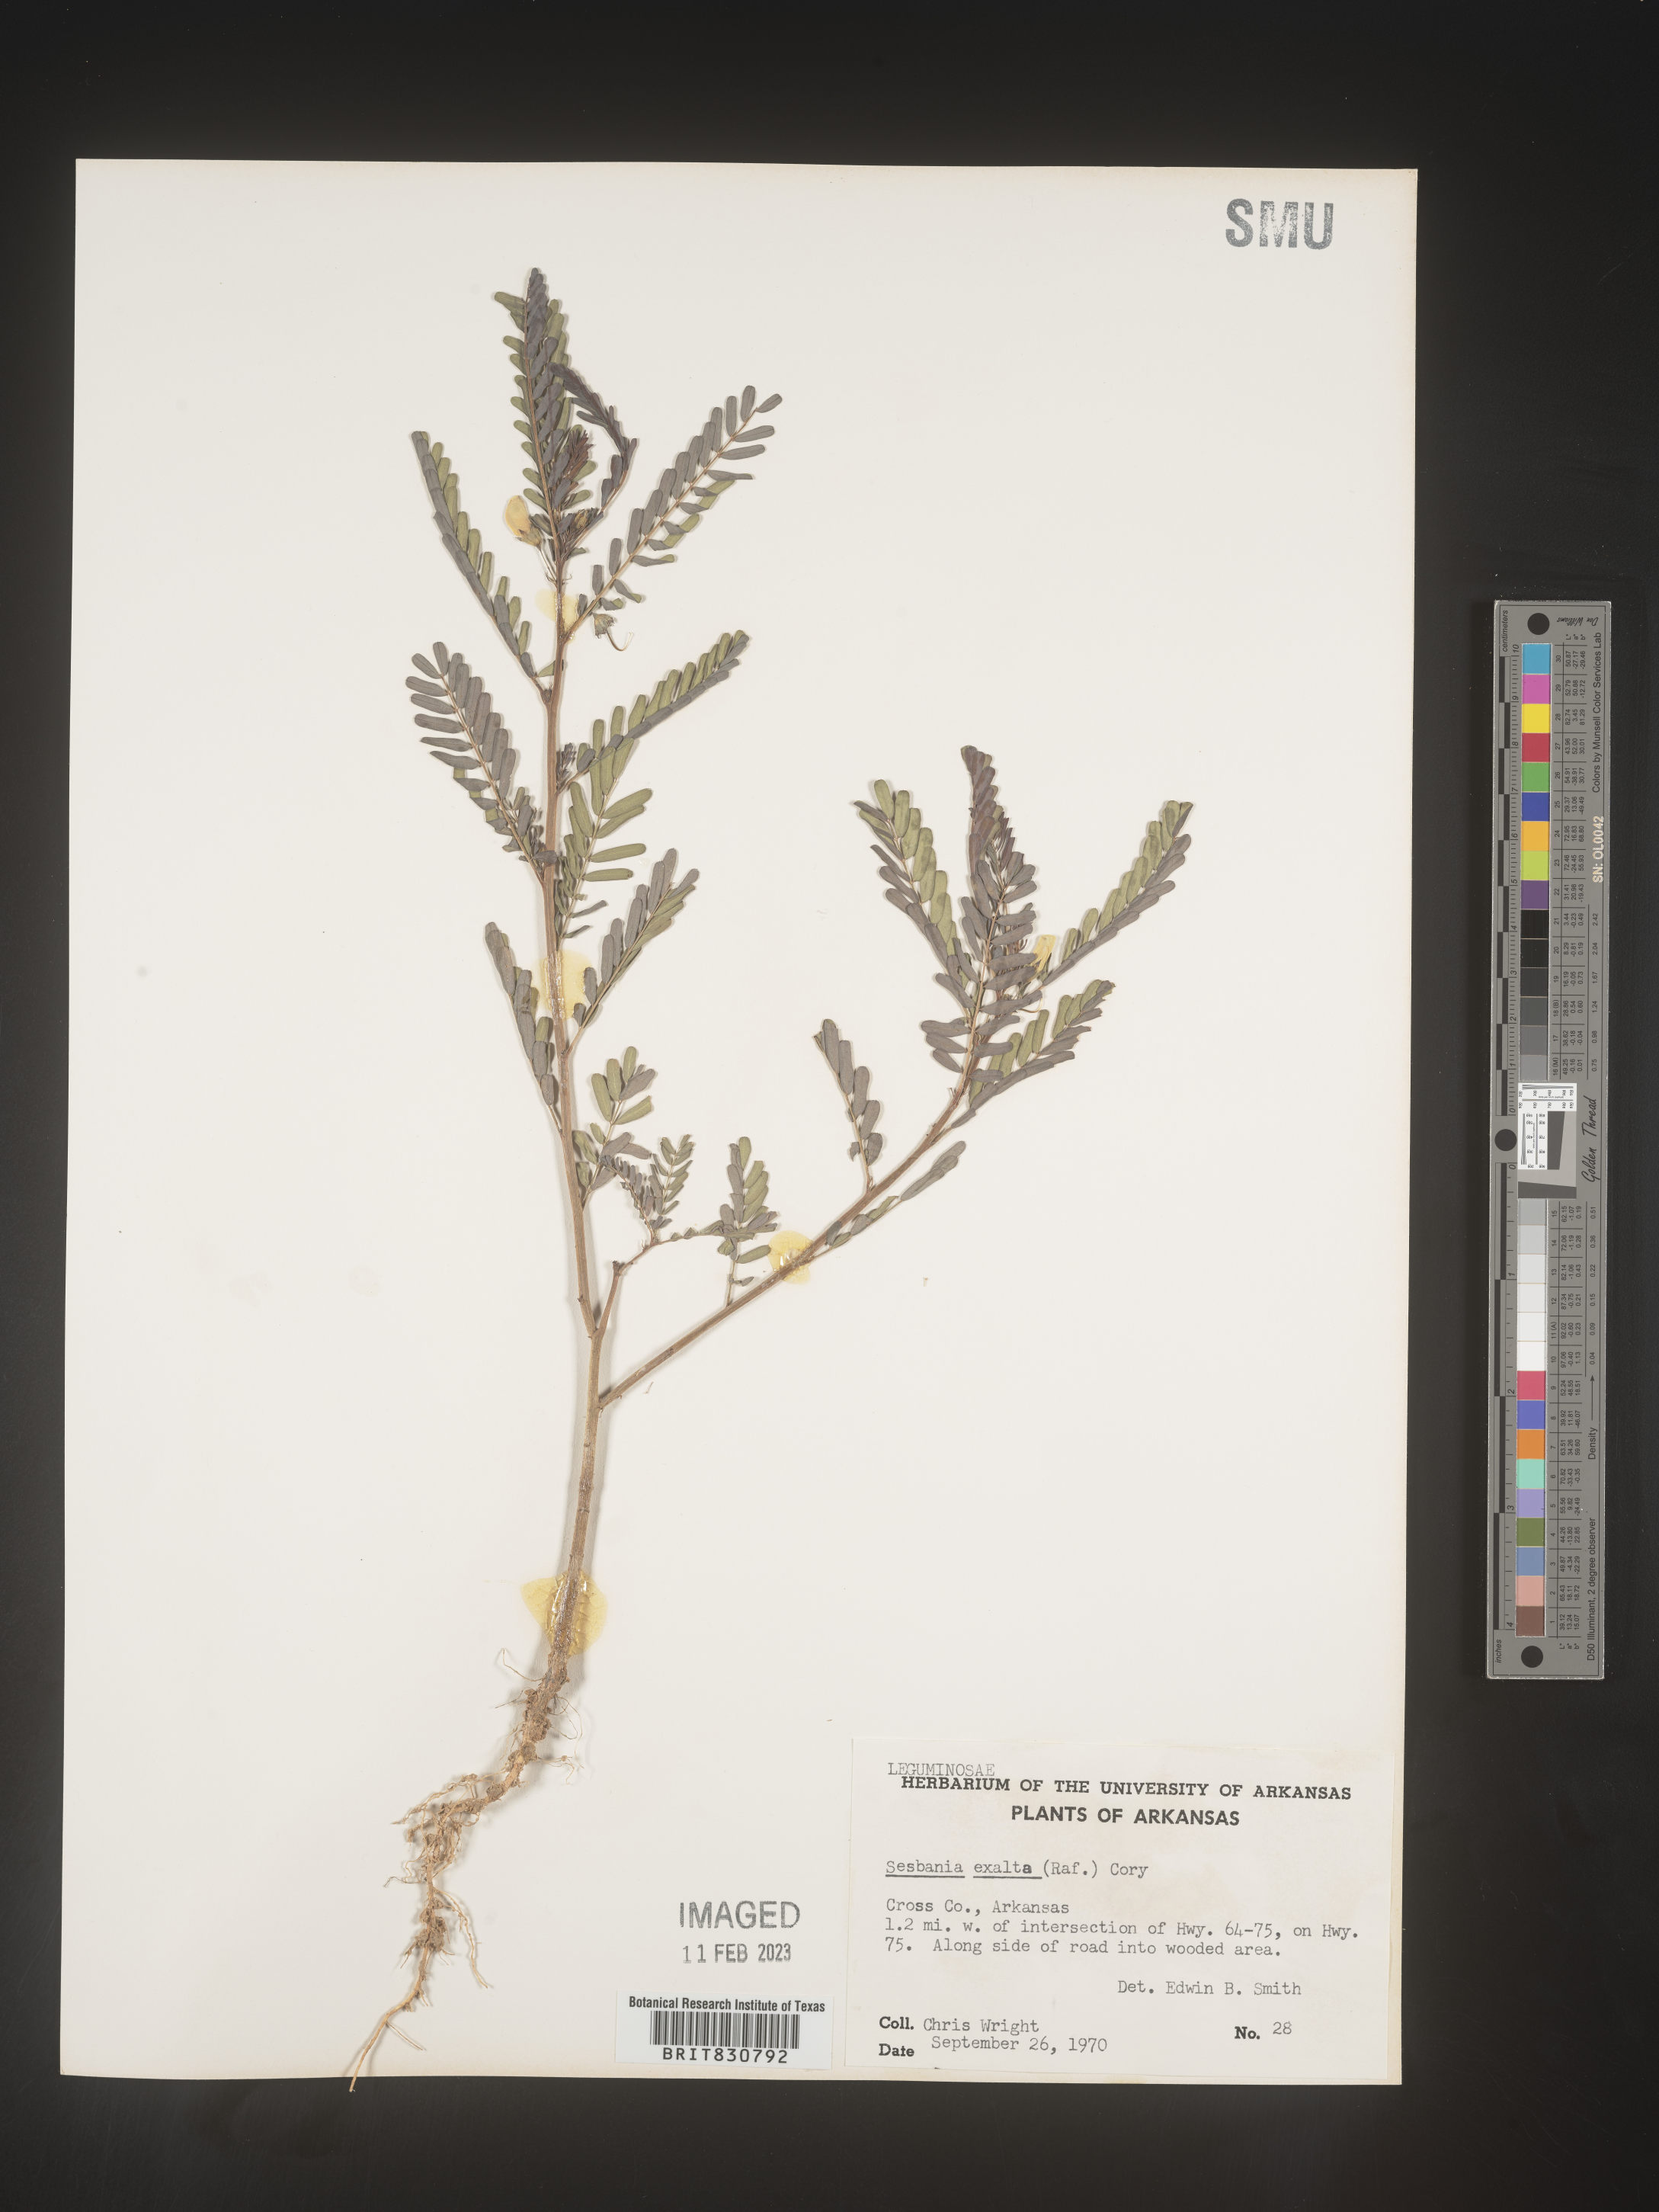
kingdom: Plantae
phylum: Tracheophyta
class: Magnoliopsida
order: Fabales
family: Fabaceae
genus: Sesbania
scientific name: Sesbania vesicaria
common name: Bagpod
